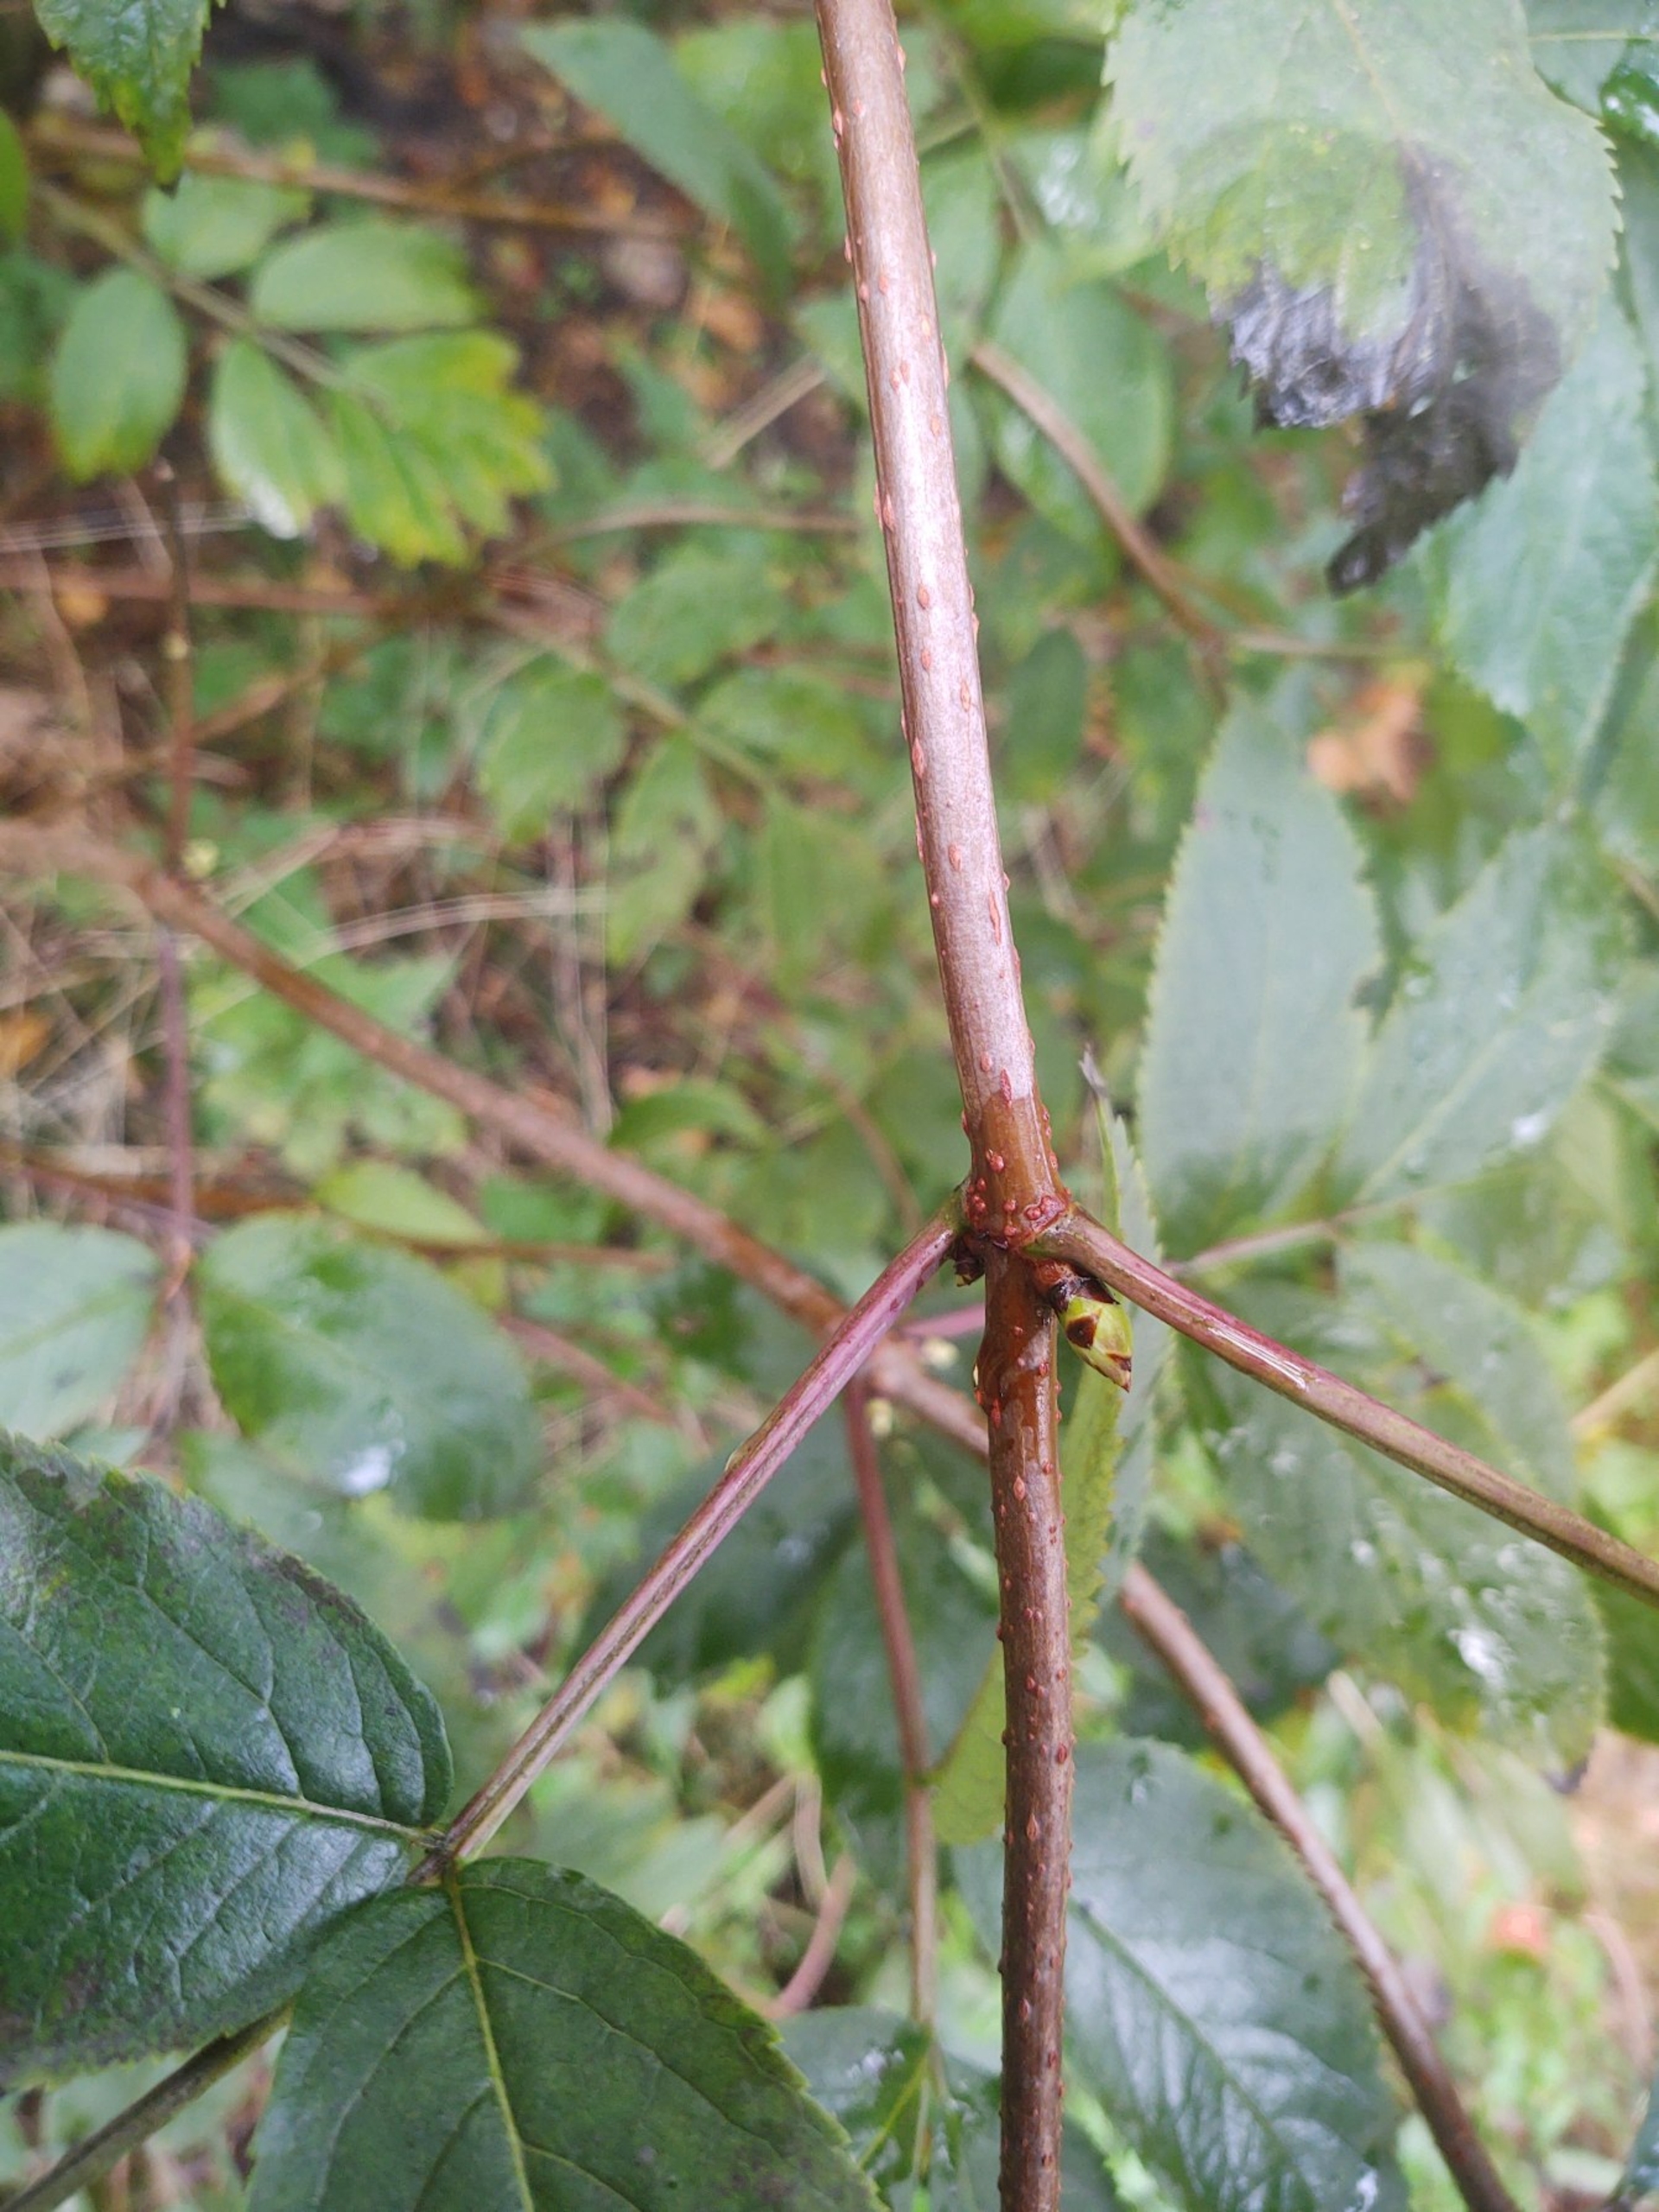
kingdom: Plantae
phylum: Tracheophyta
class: Magnoliopsida
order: Dipsacales
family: Viburnaceae
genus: Sambucus
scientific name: Sambucus racemosa
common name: Drue-hyld
